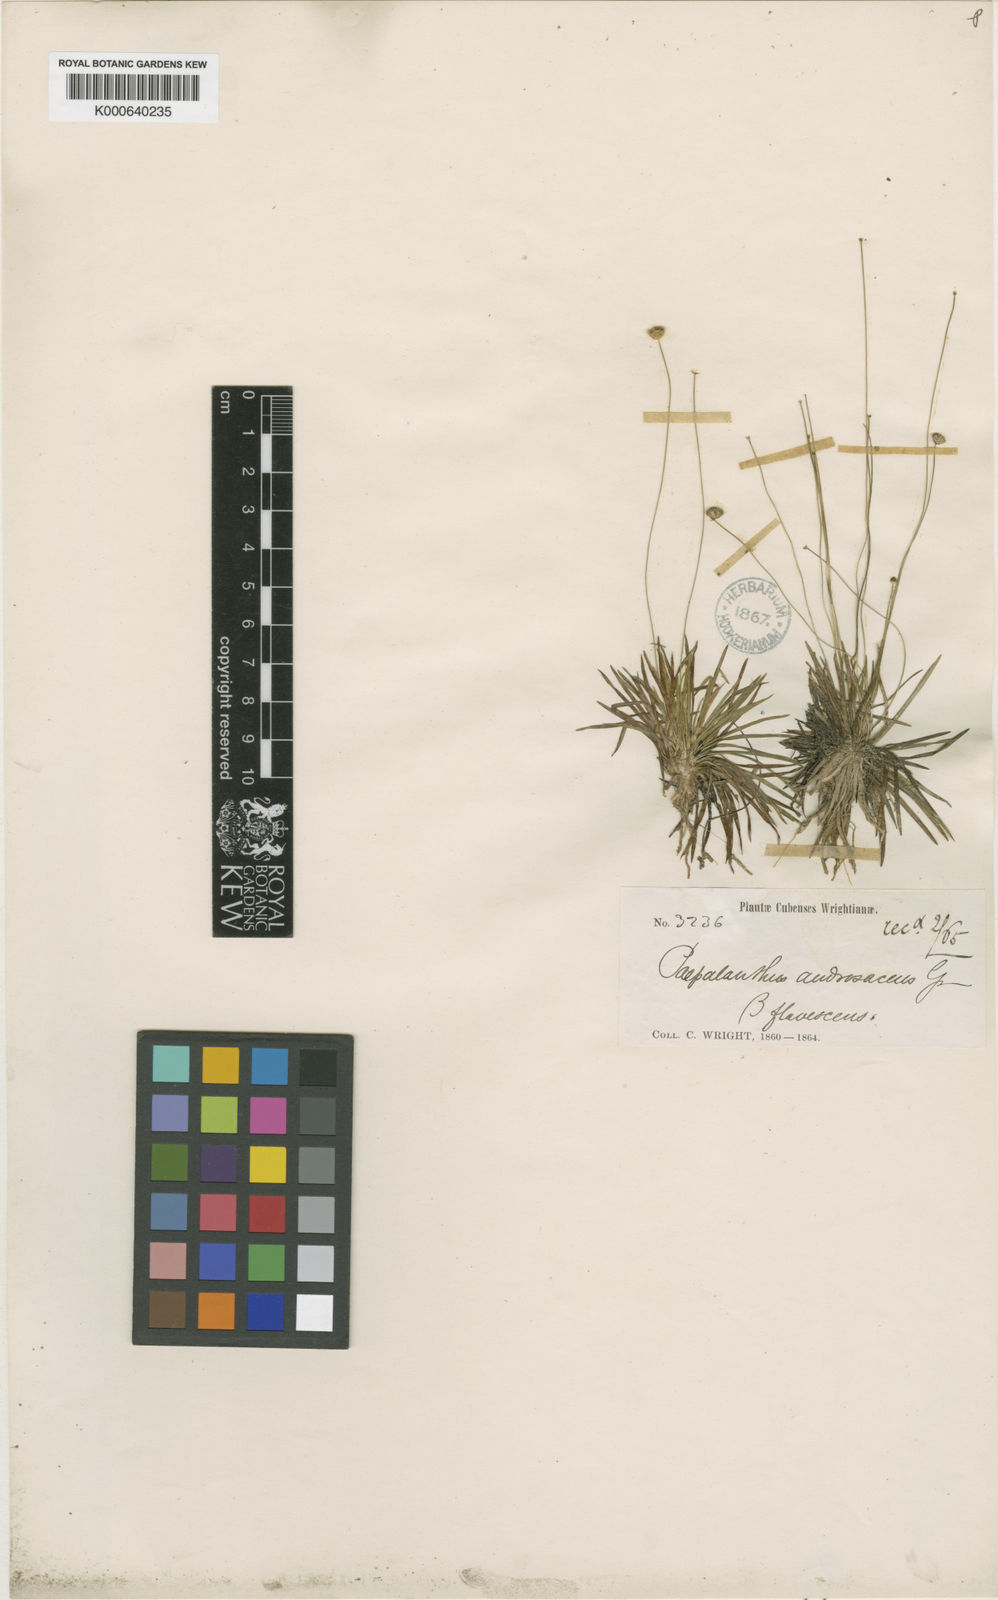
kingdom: Plantae
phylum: Tracheophyta
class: Liliopsida
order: Poales
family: Eriocaulaceae
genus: Syngonanthus
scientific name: Syngonanthus androsaceus
